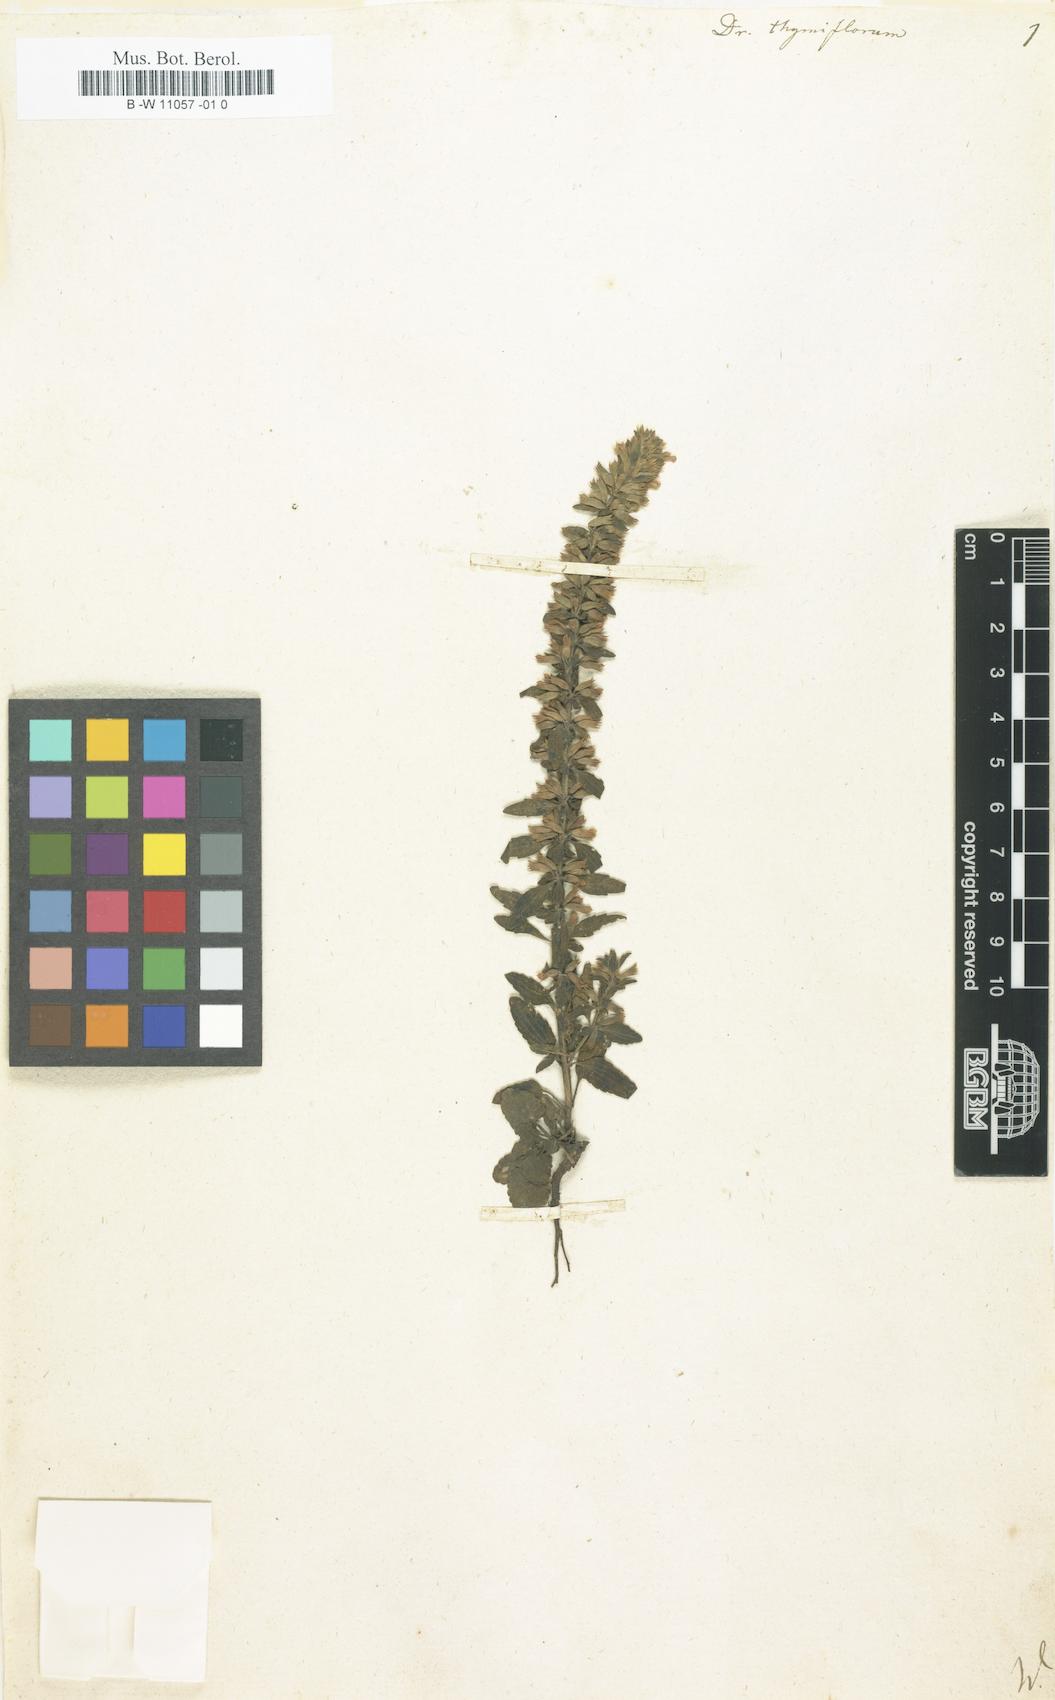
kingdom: Plantae
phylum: Tracheophyta
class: Magnoliopsida
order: Lamiales
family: Lamiaceae
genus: Dracocephalum
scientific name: Dracocephalum thymiflorum
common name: Thymeleaf dragonhead
